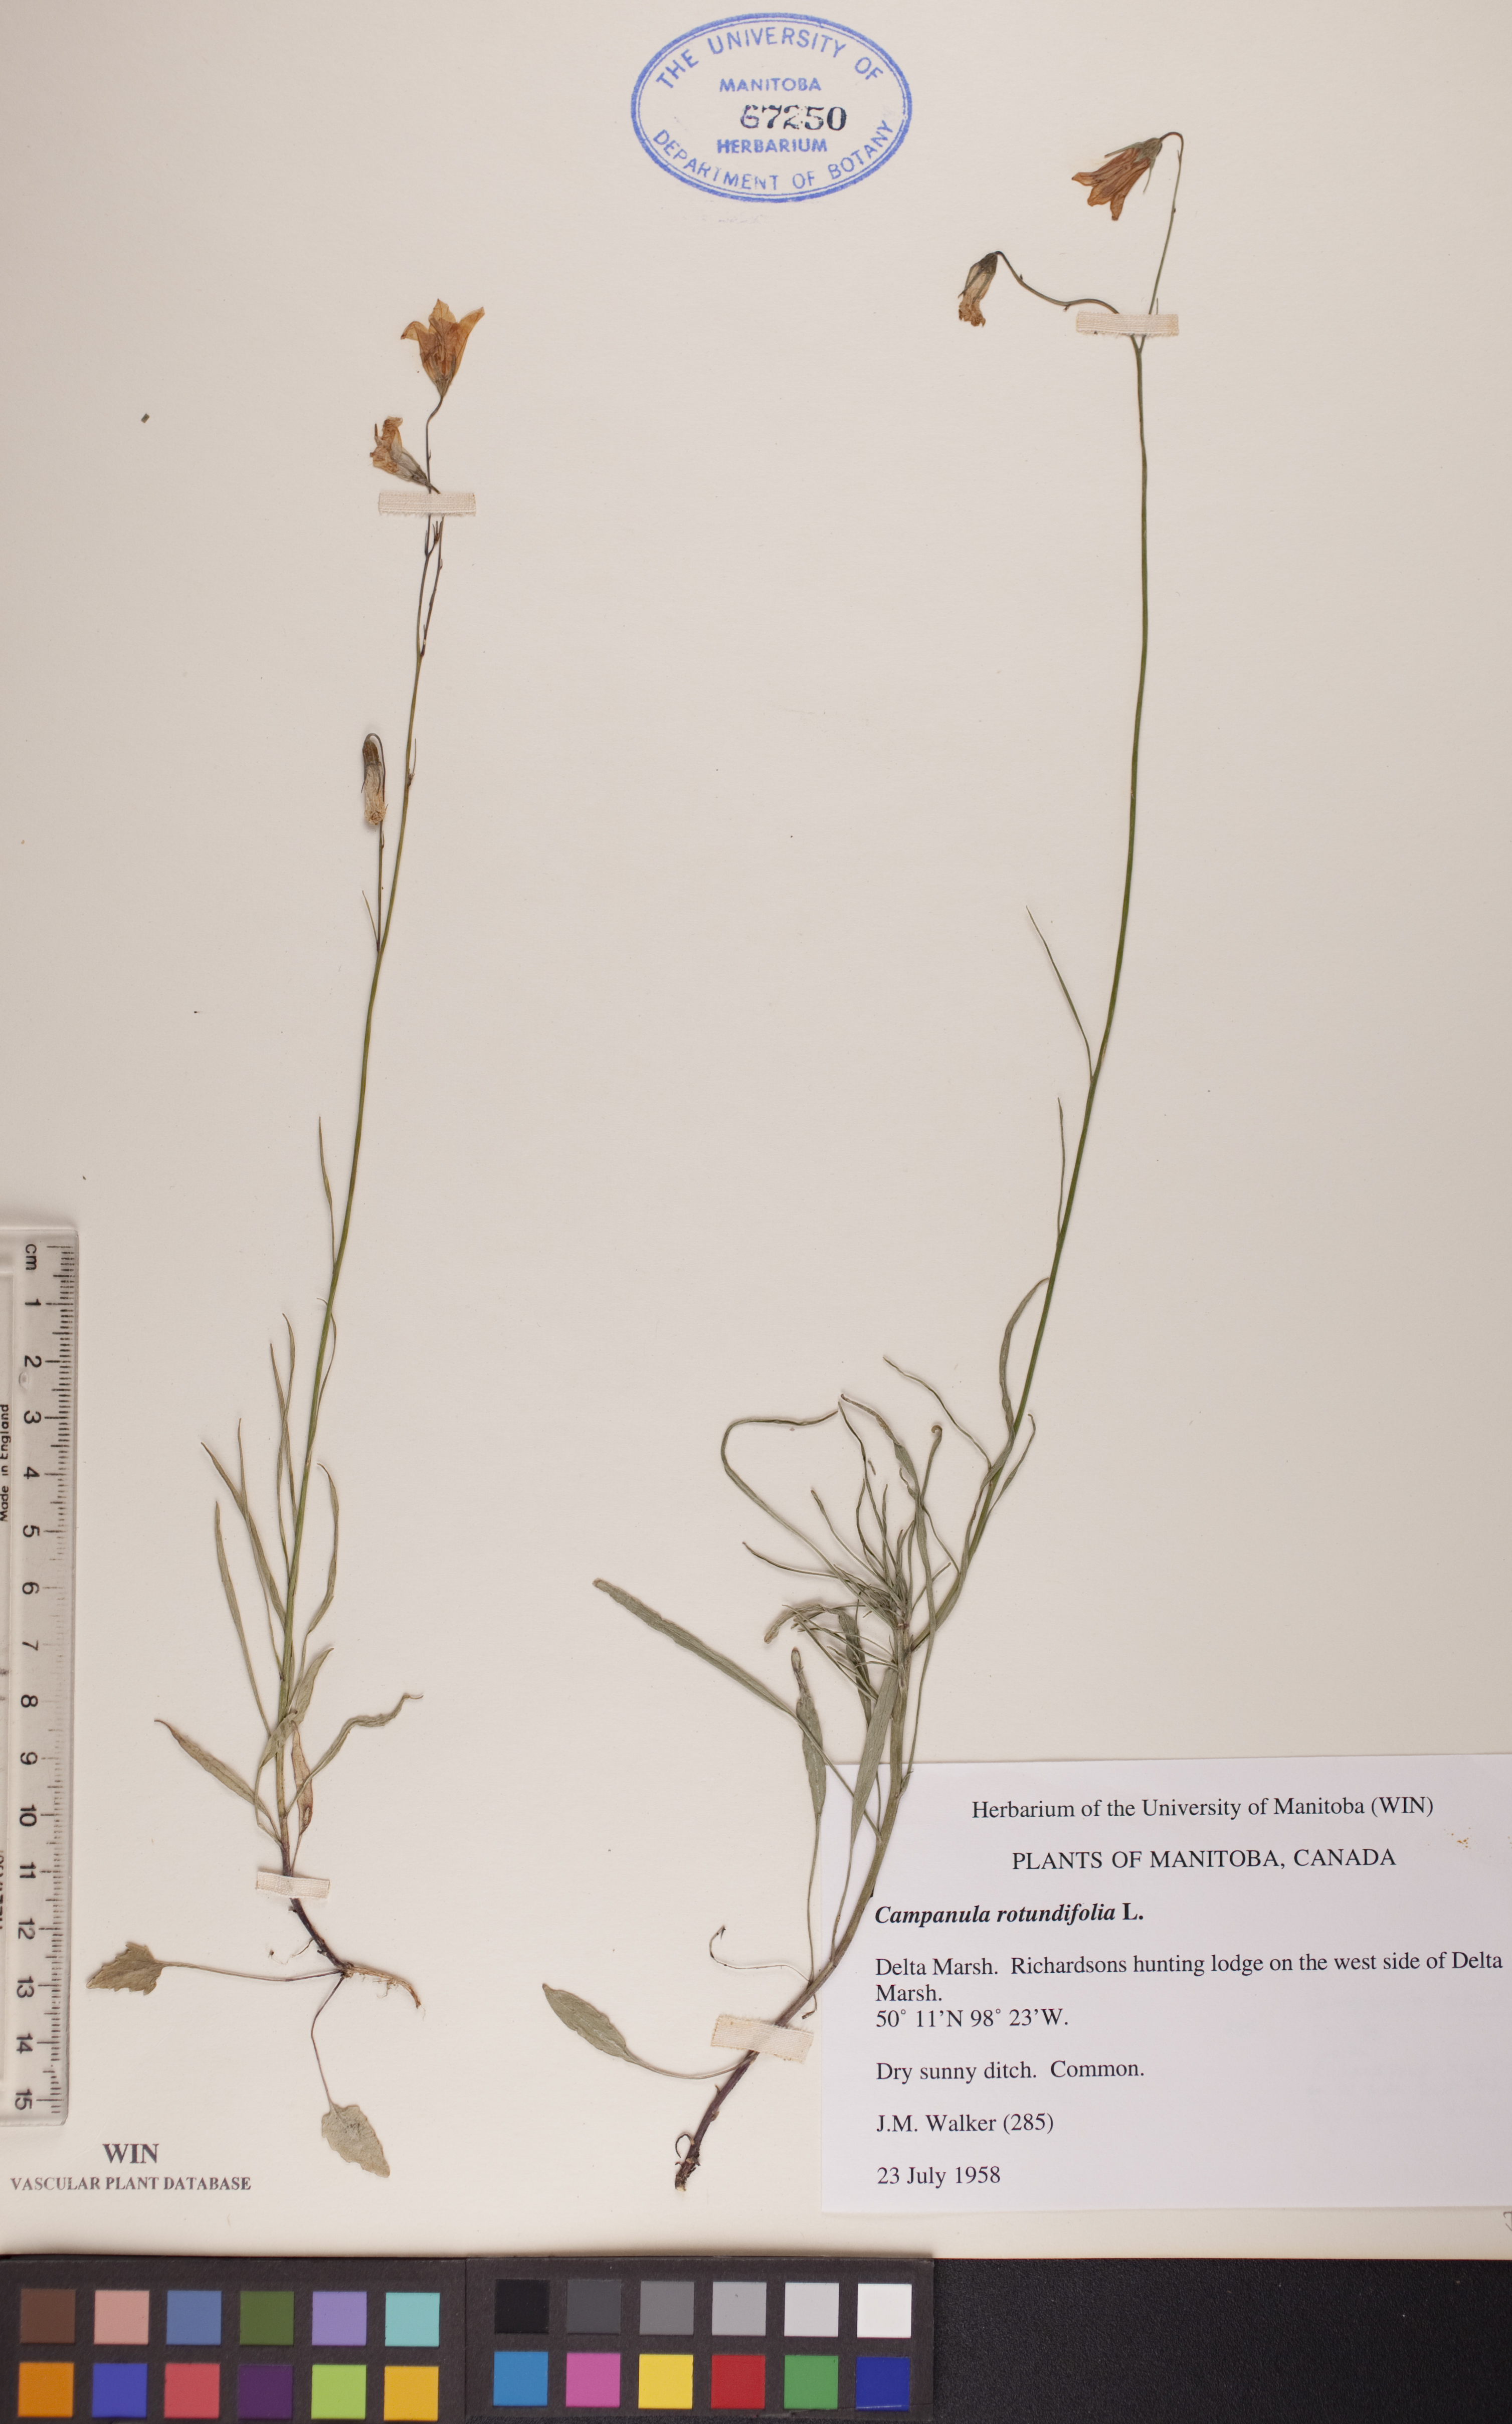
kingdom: Plantae
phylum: Tracheophyta
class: Magnoliopsida
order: Asterales
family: Campanulaceae
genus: Campanula
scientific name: Campanula rotundifolia
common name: Harebell
